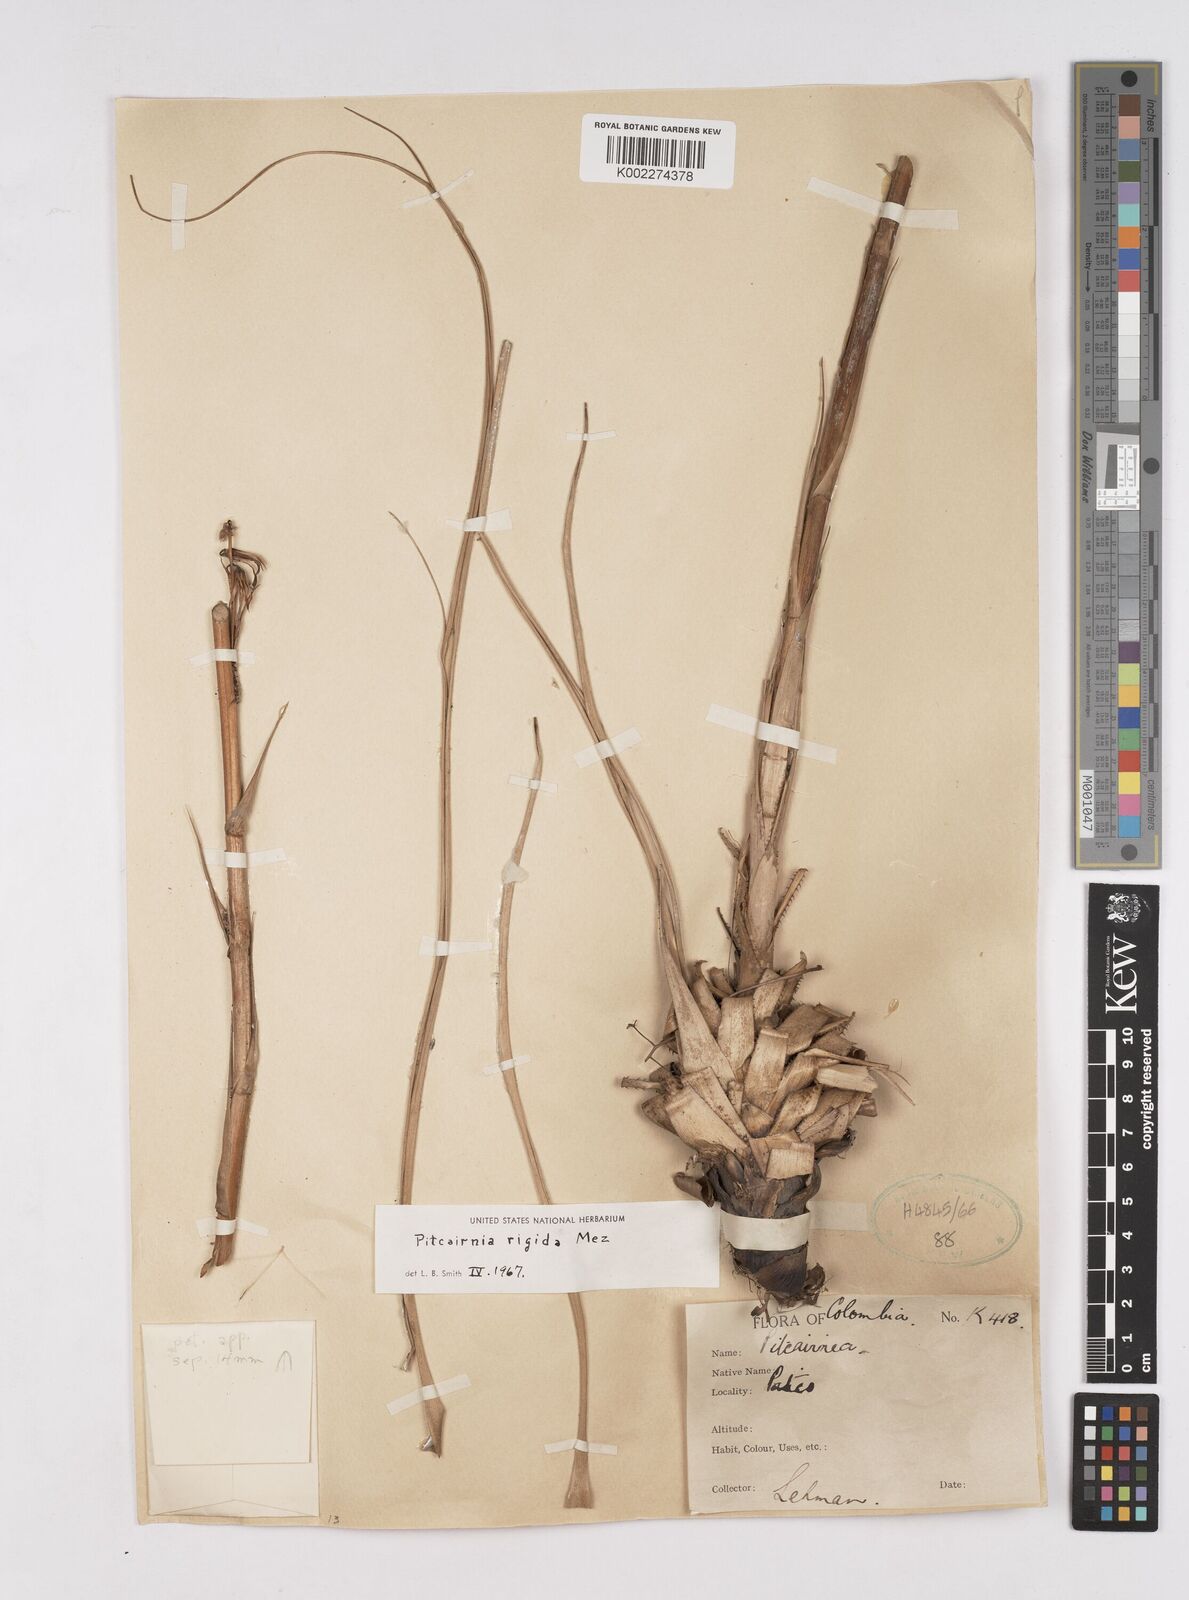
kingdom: Plantae
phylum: Tracheophyta
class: Liliopsida
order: Poales
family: Bromeliaceae
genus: Pitcairnia
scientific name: Pitcairnia rigida
